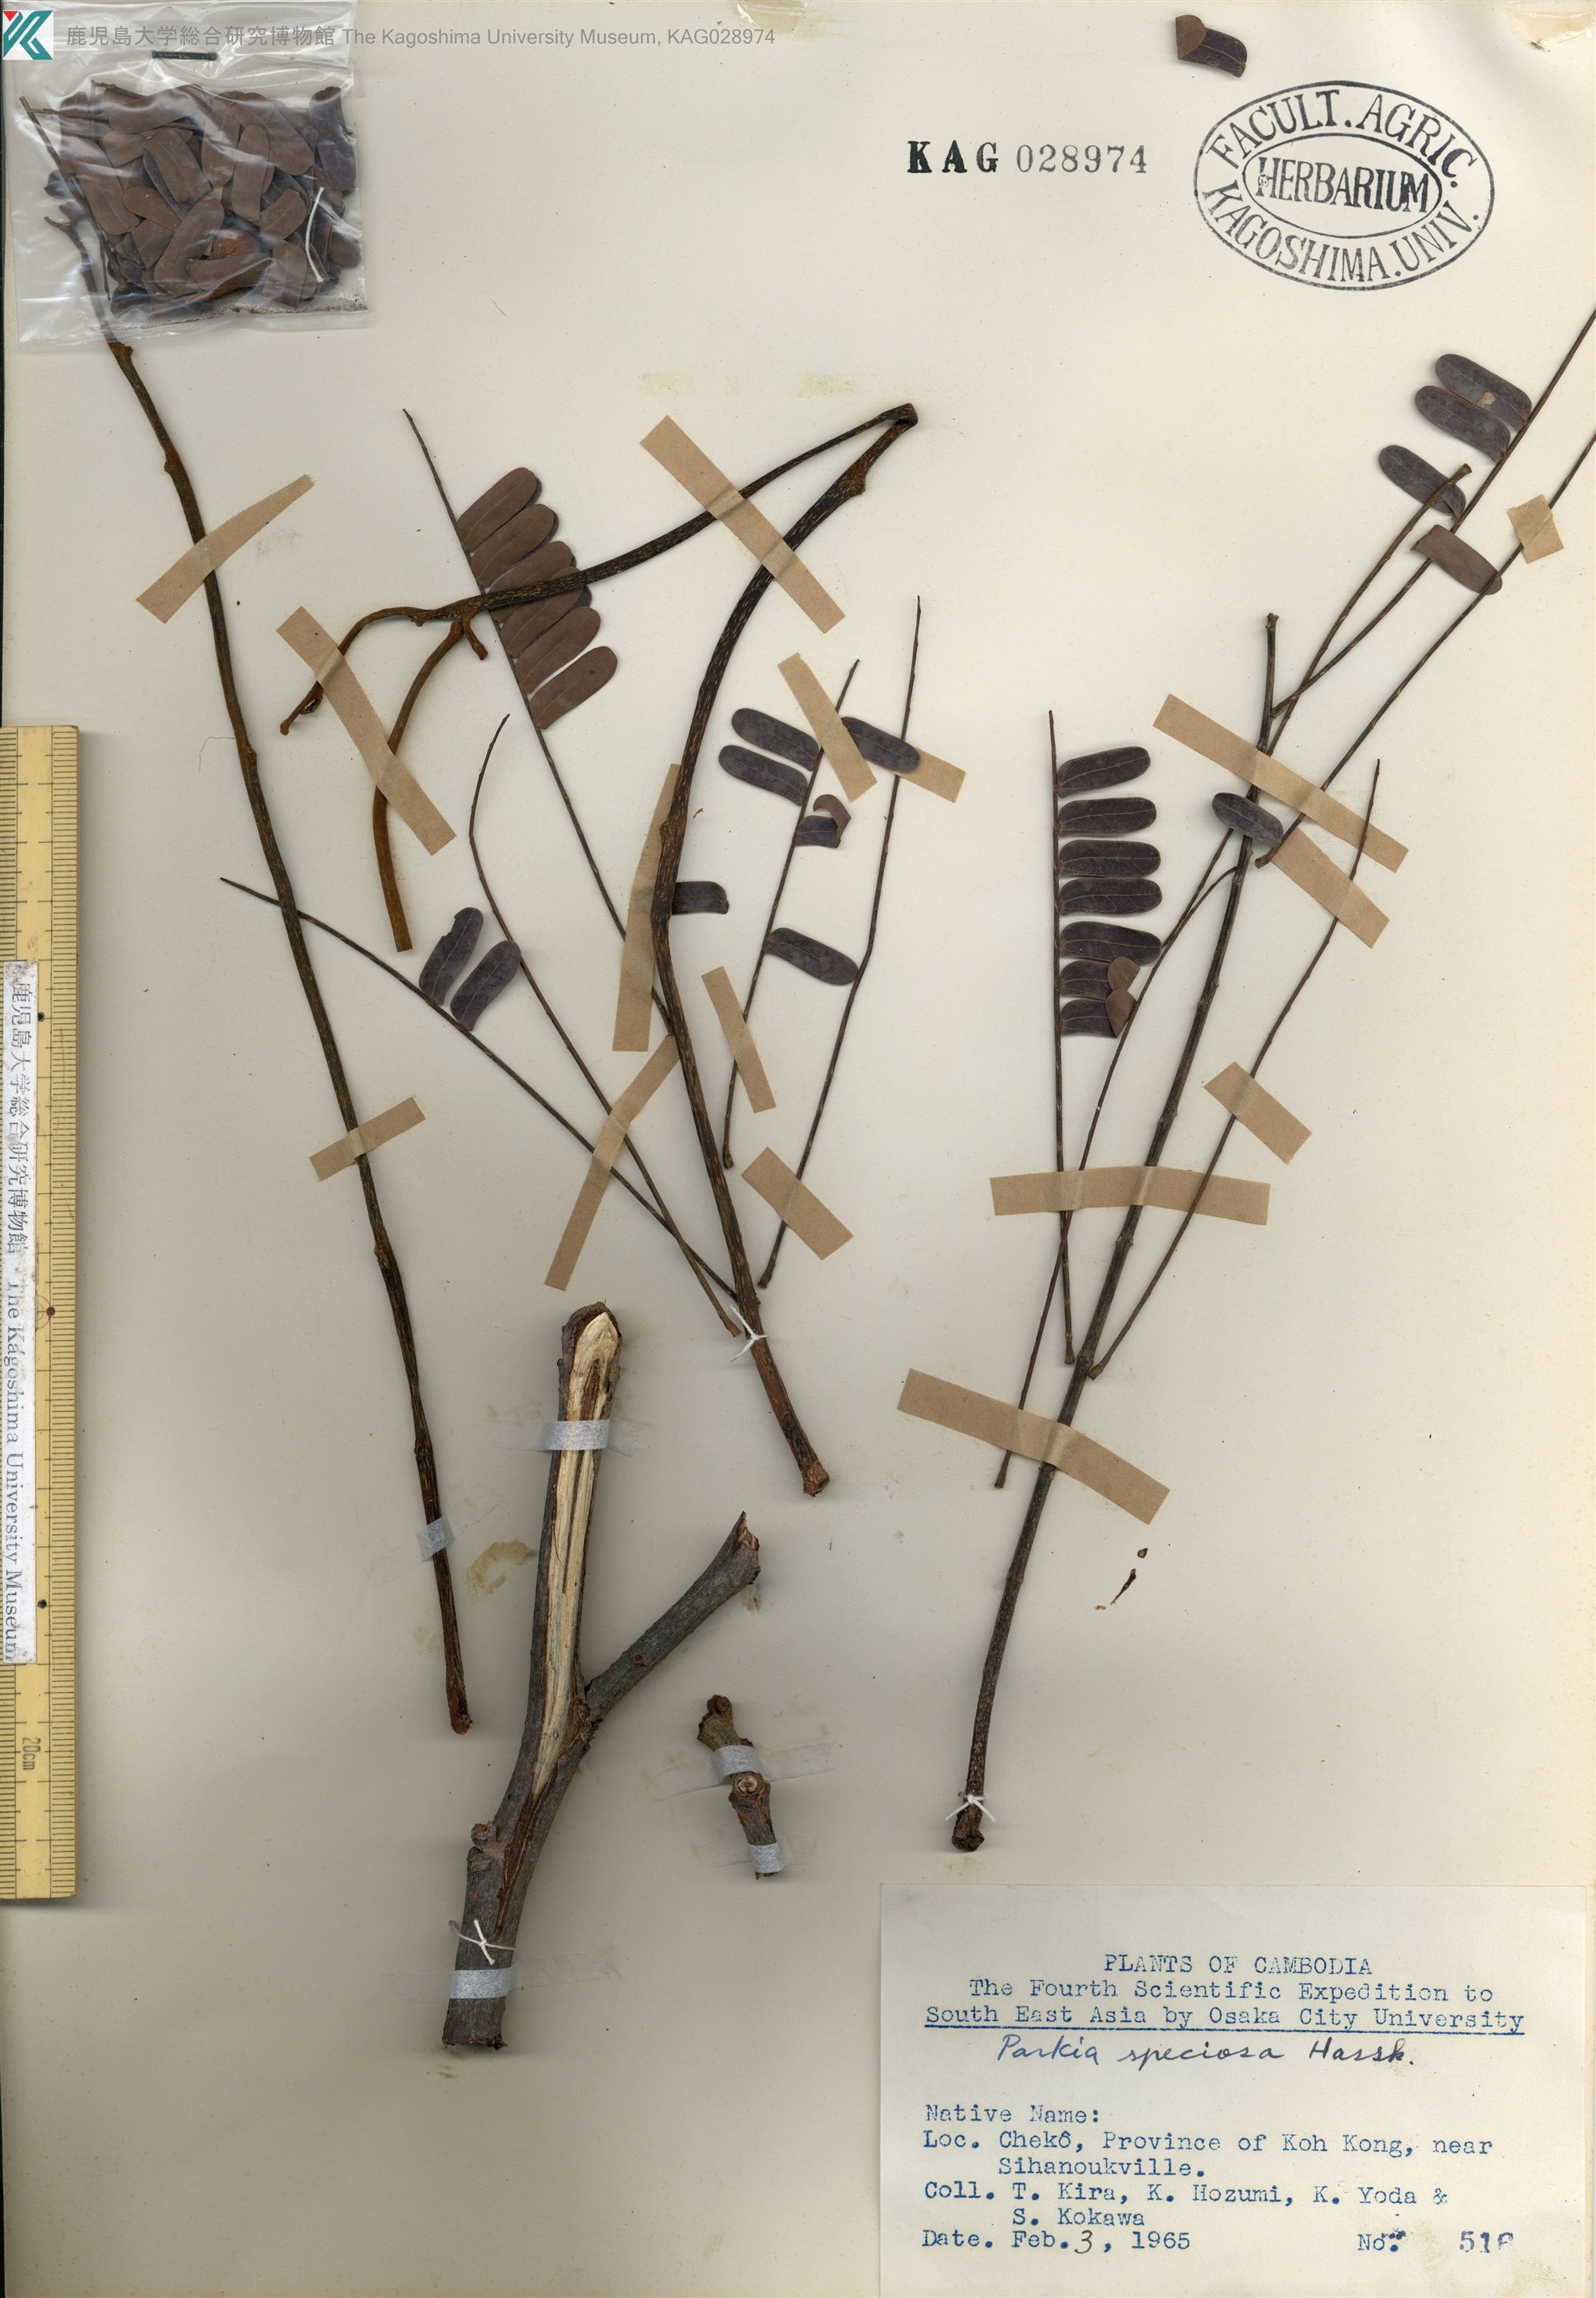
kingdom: Plantae
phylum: Tracheophyta
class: Magnoliopsida
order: Fabales
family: Fabaceae
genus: Parkia
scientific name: Parkia speciosa
